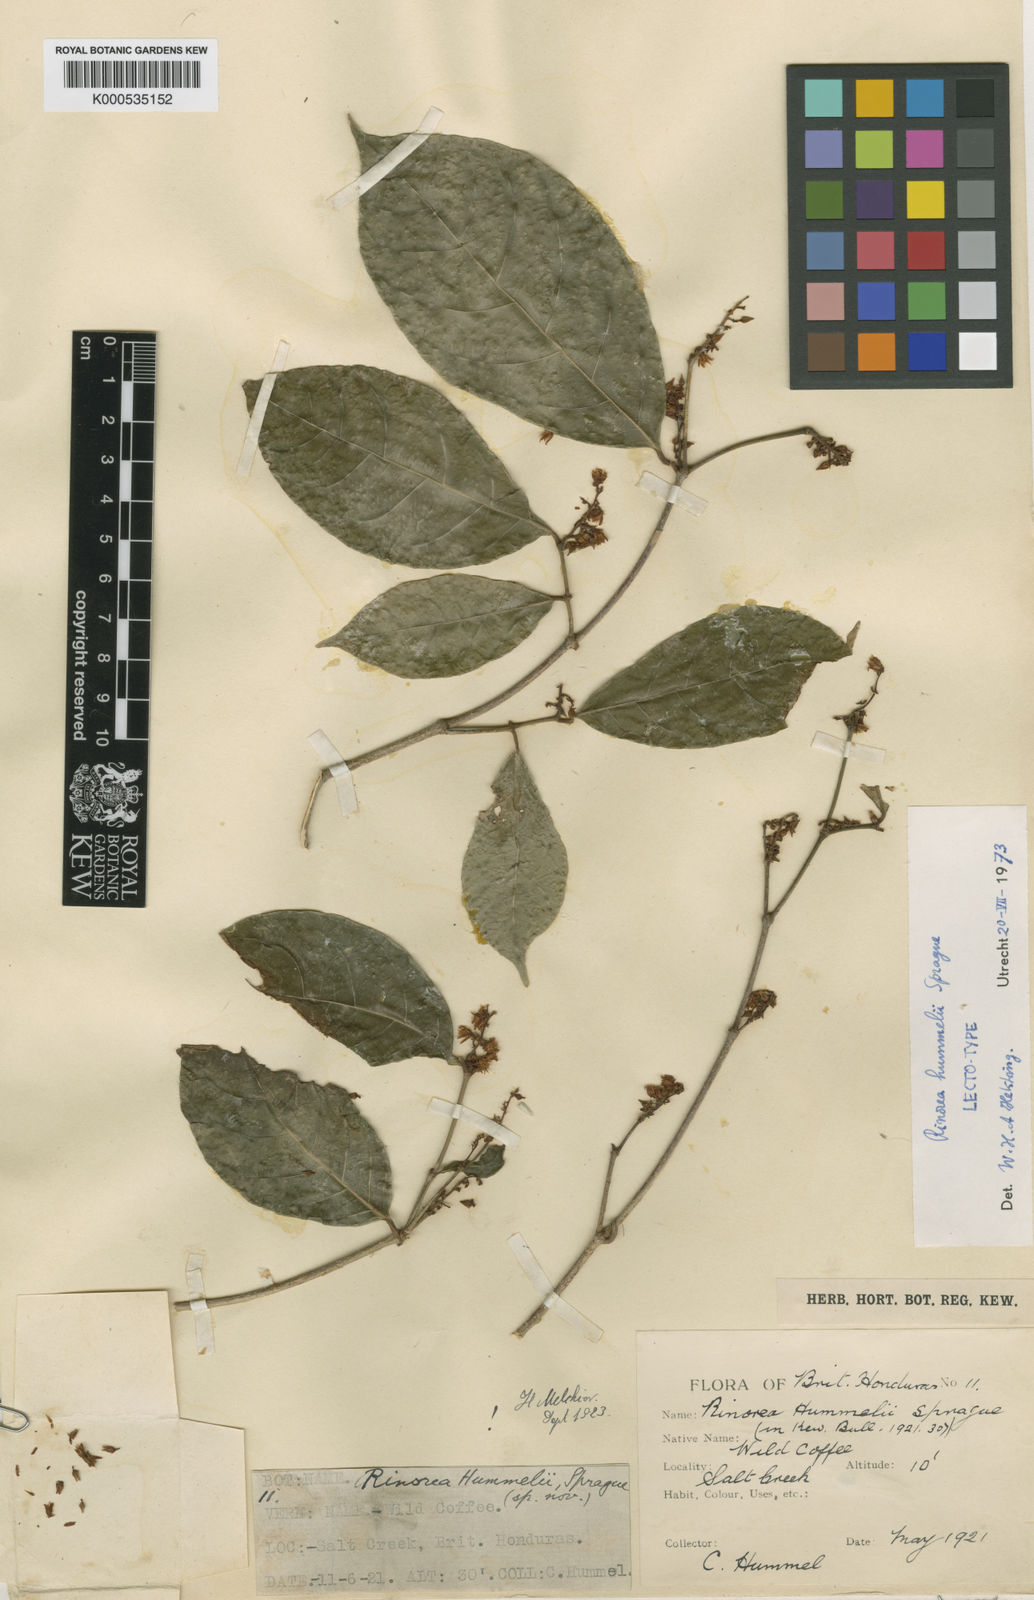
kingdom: Plantae
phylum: Tracheophyta
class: Magnoliopsida
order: Malpighiales
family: Violaceae
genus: Rinorea
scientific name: Rinorea hummelii
